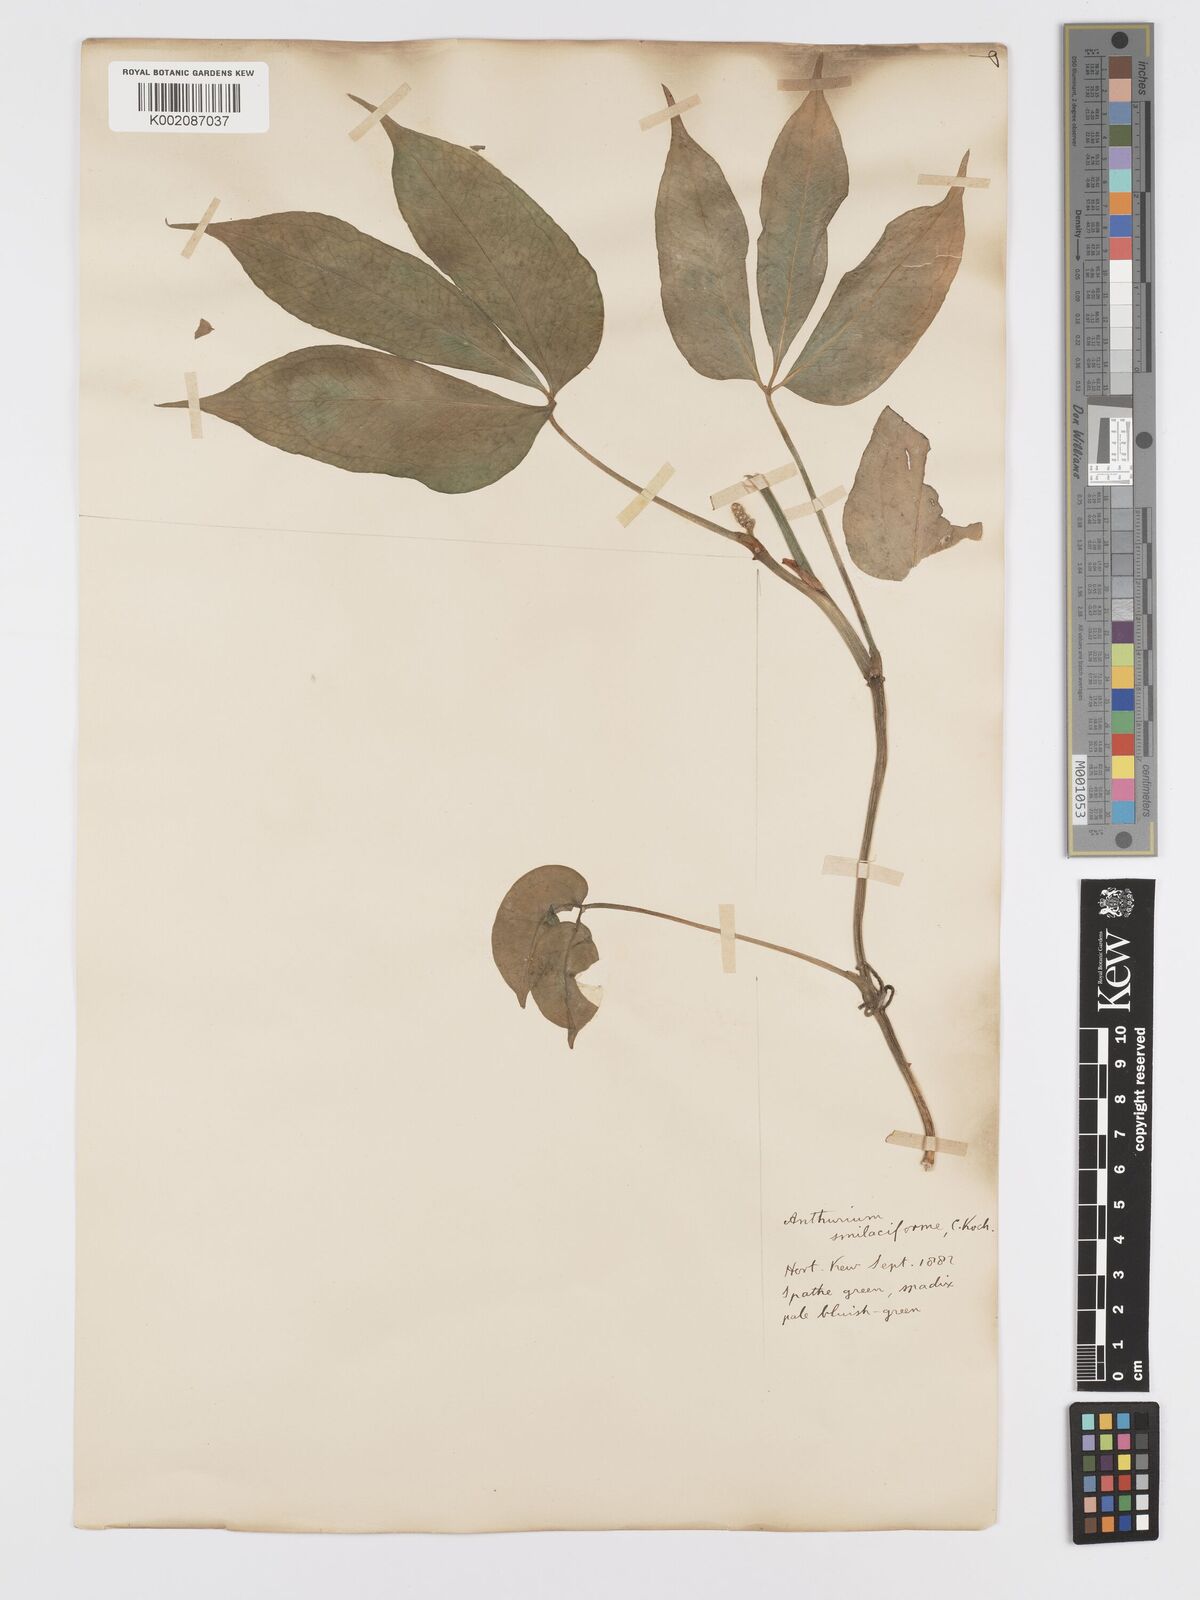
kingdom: Plantae
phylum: Tracheophyta
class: Liliopsida
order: Alismatales
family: Araceae
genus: Anthurium
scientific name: Anthurium pentaphyllum
